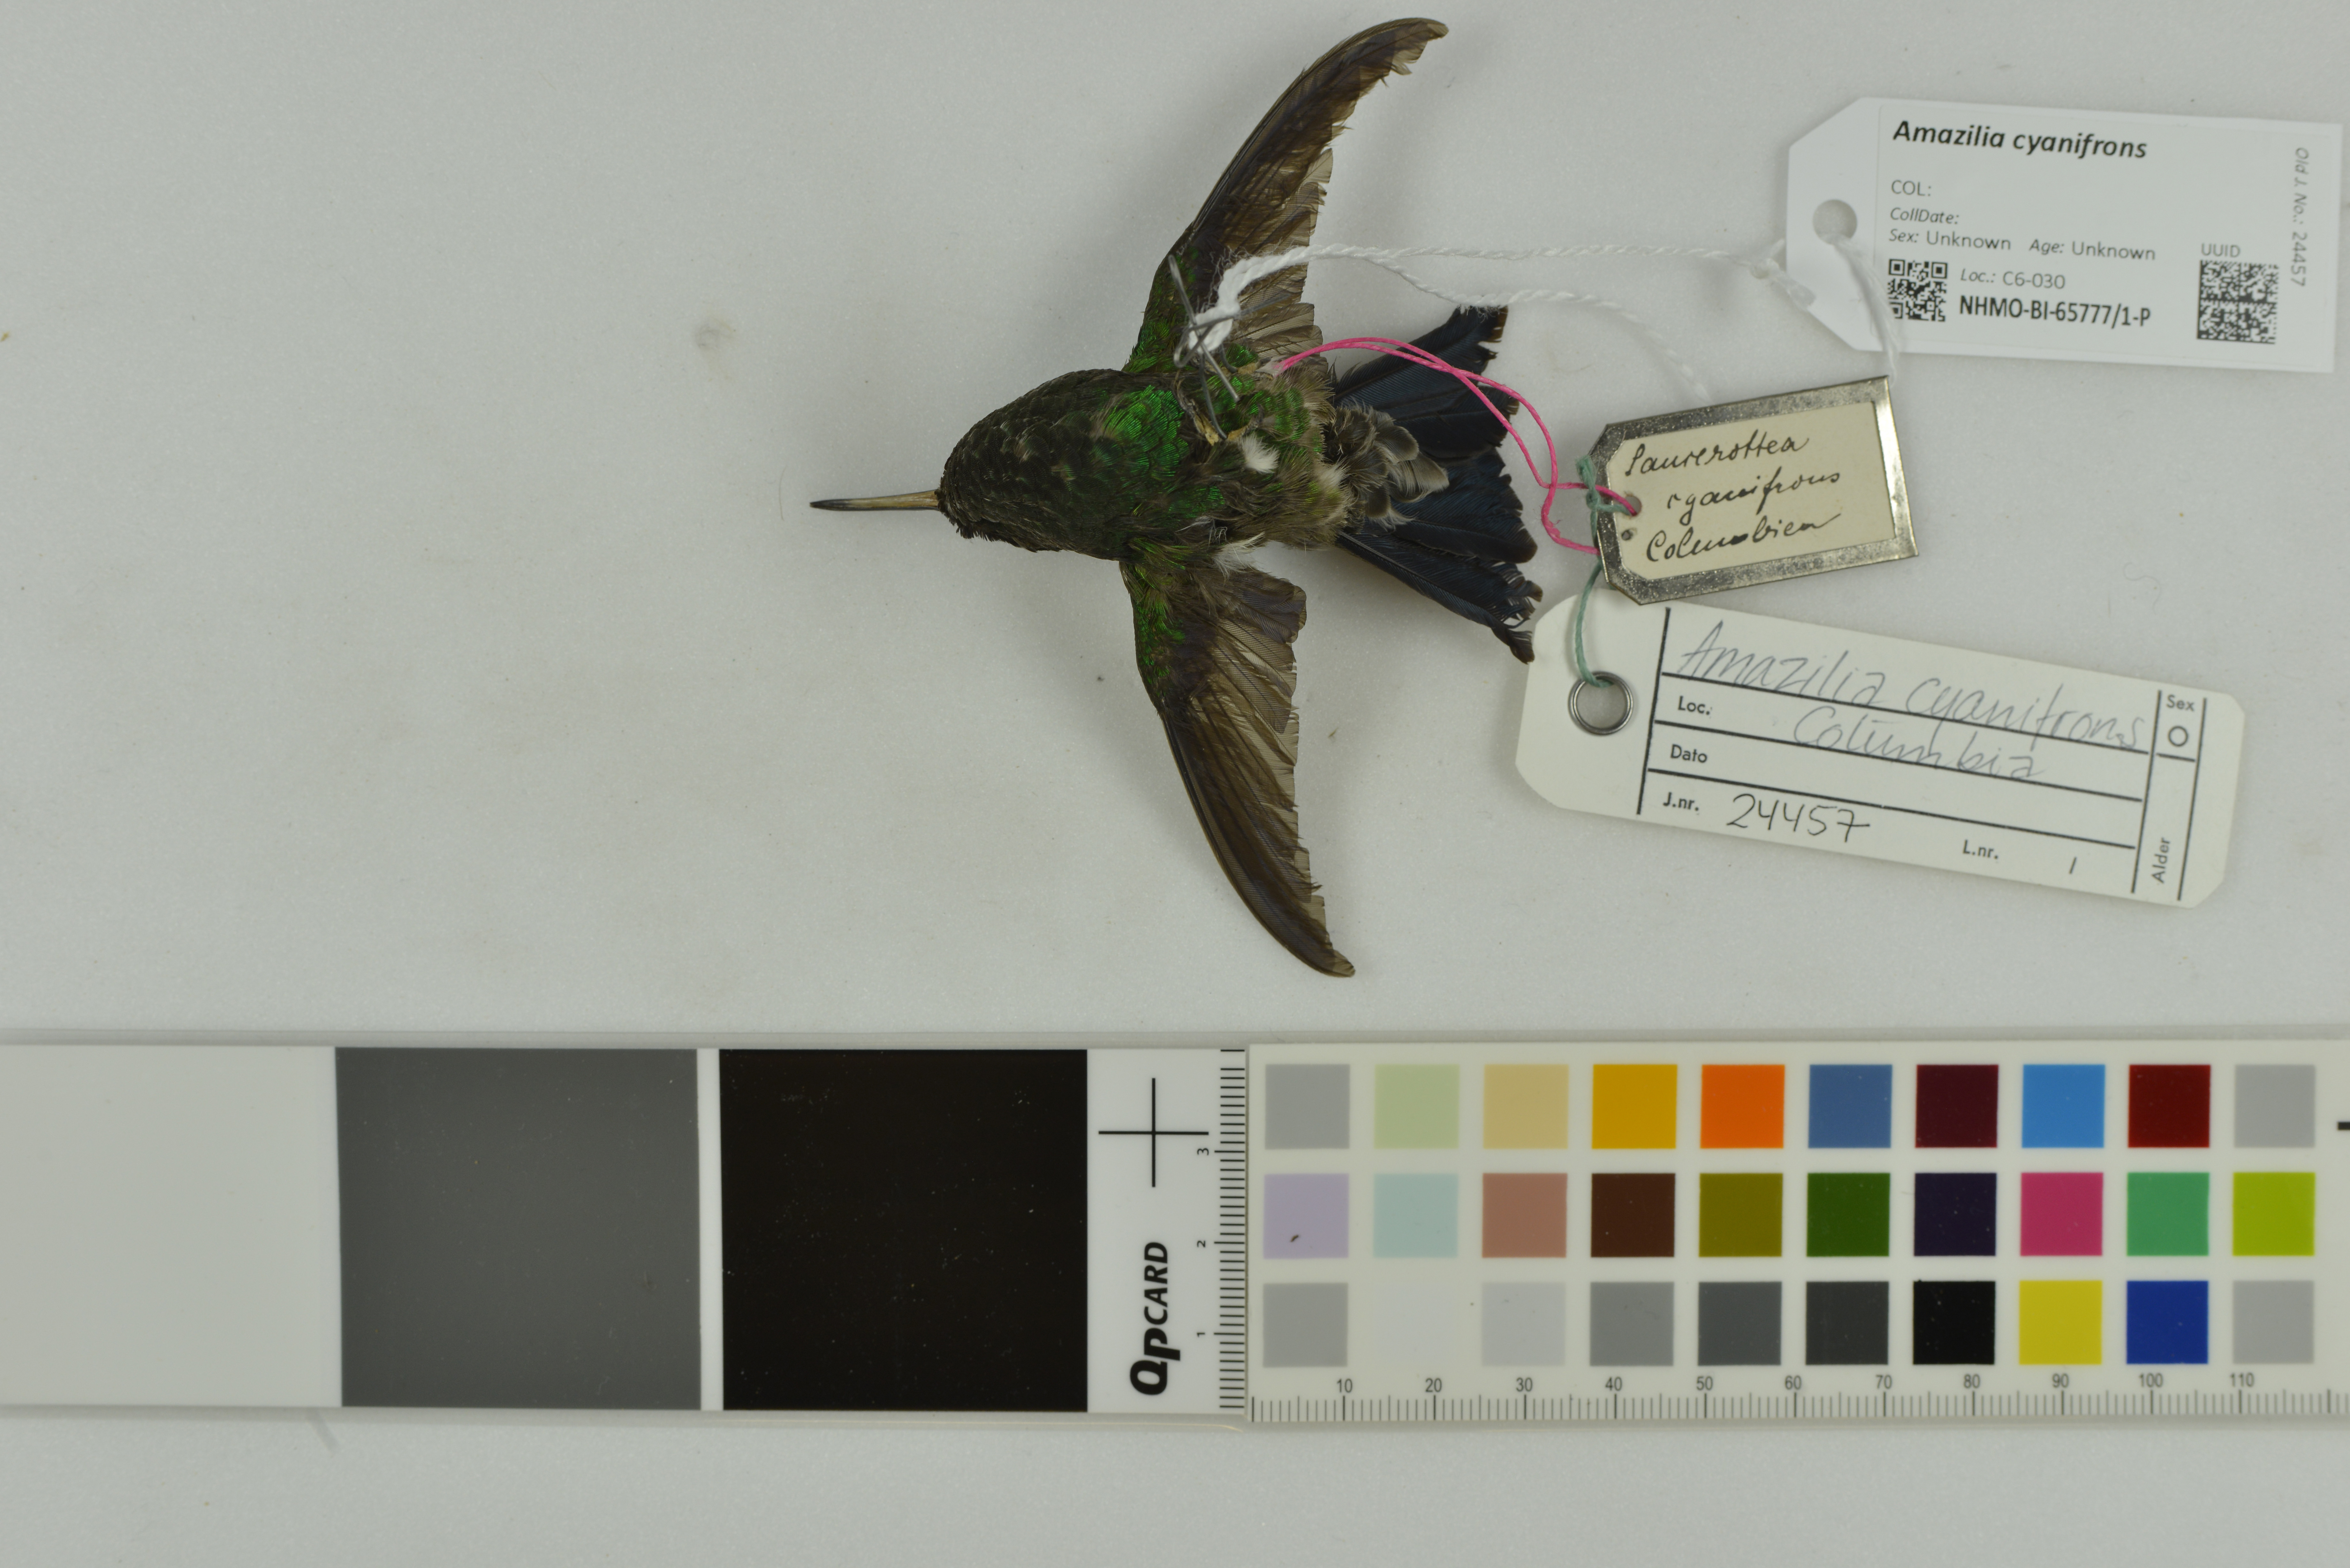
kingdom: Animalia
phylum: Chordata
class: Aves
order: Apodiformes
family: Trochilidae
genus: Saucerottia
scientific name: Saucerottia cyanifrons
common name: Indigo-capped hummingbird
